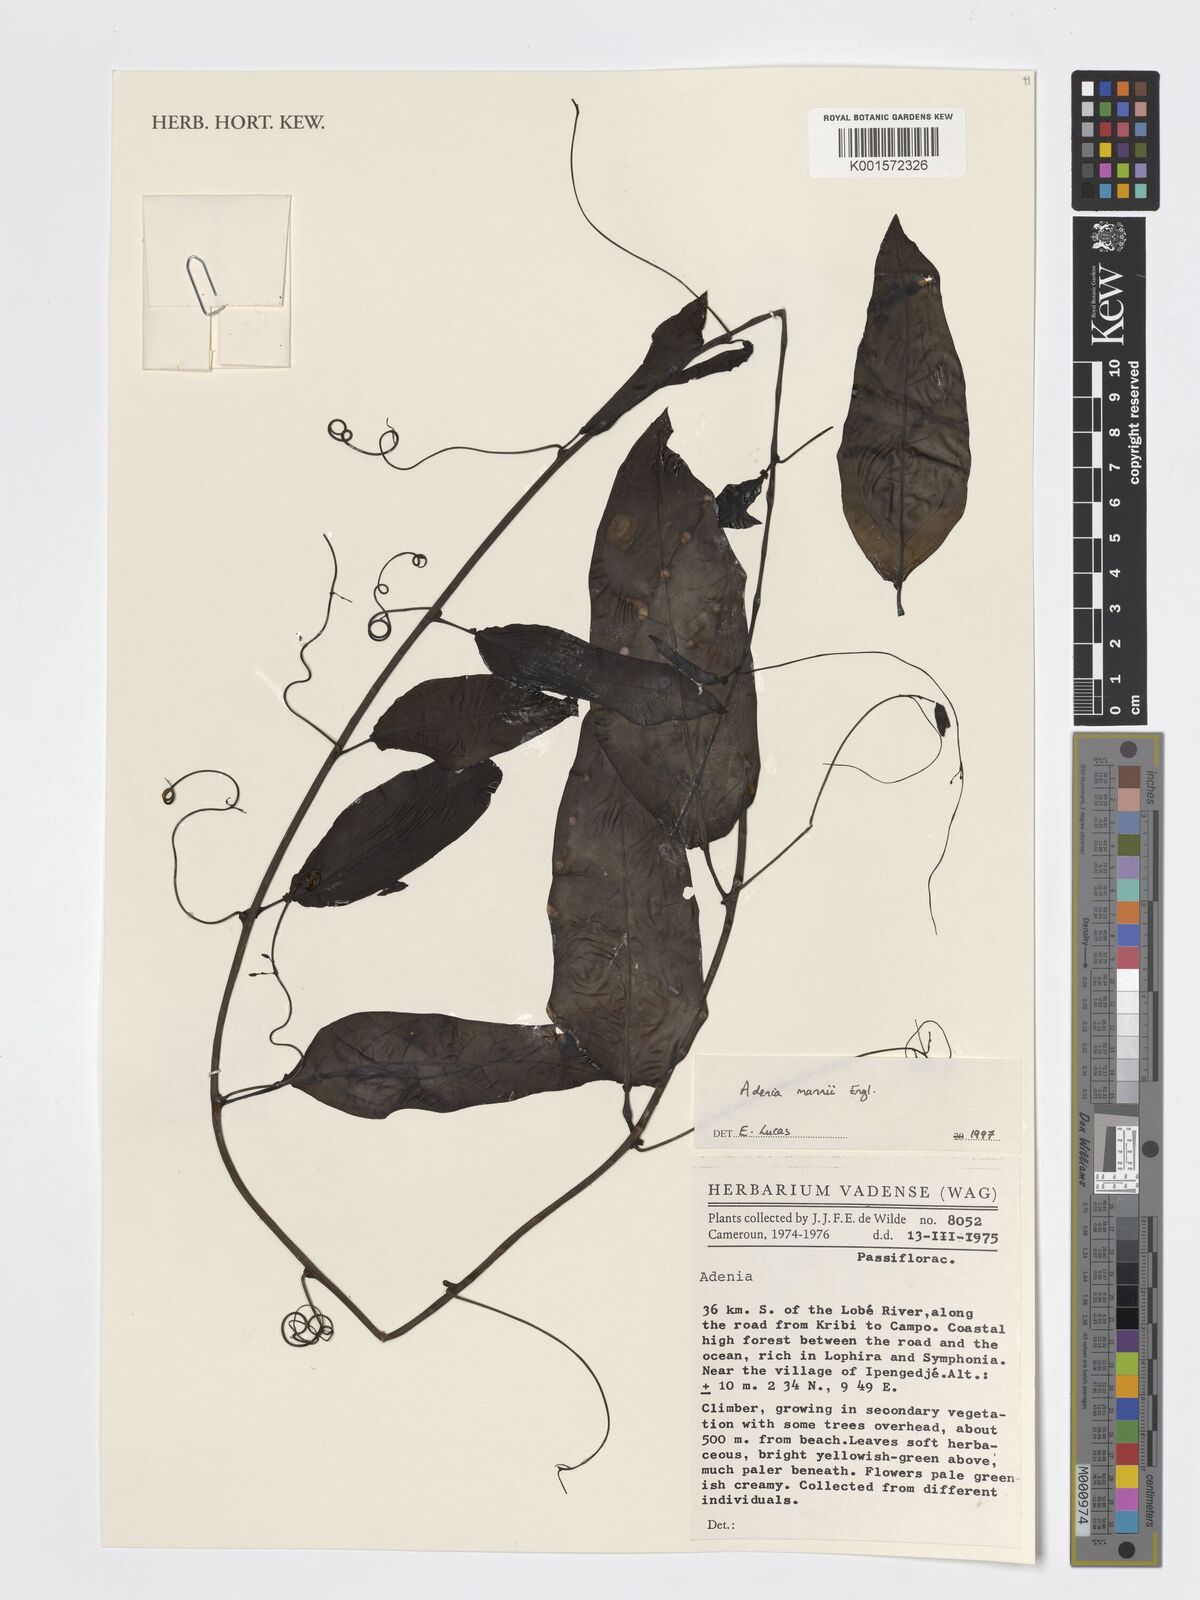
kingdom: Plantae
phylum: Tracheophyta
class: Magnoliopsida
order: Malpighiales
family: Passifloraceae
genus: Adenia
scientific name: Adenia mannii
